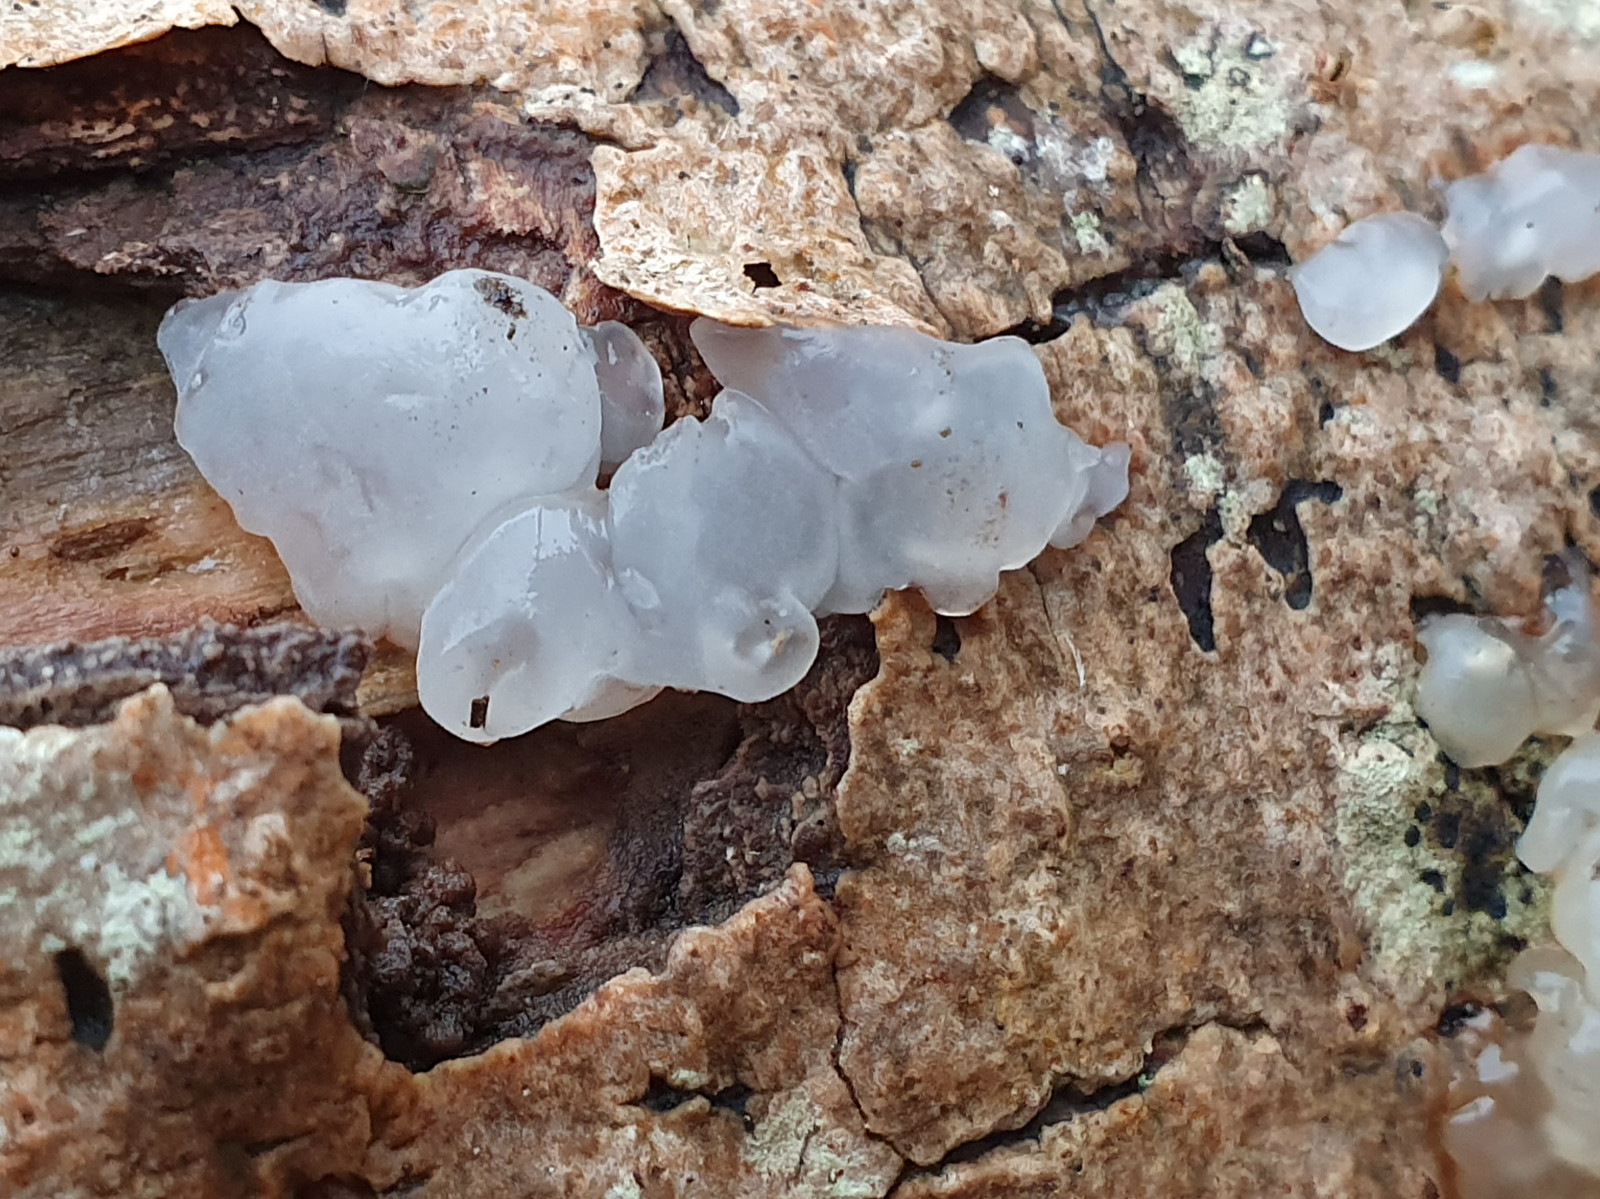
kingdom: Fungi
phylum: Basidiomycota
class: Agaricomycetes
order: Auriculariales
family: Hyaloriaceae
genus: Myxarium
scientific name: Myxarium nucleatum
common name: klar bævretop
